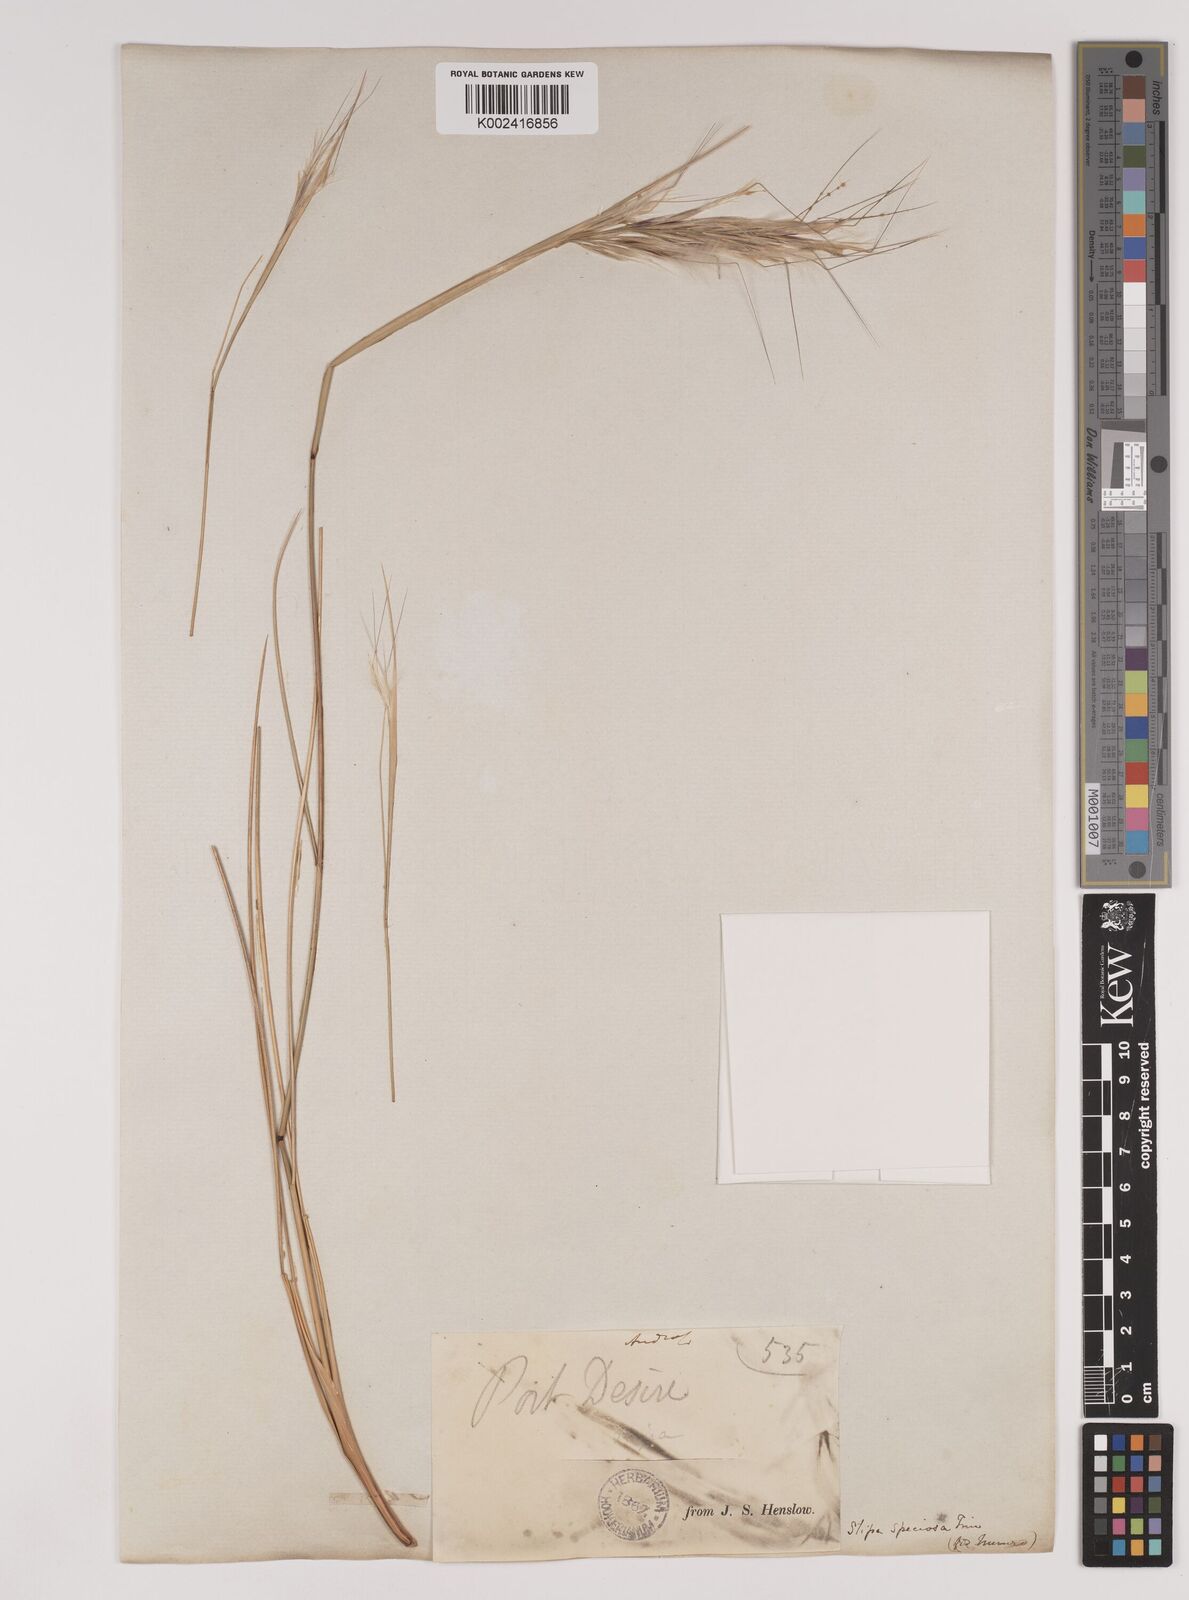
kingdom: Plantae
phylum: Tracheophyta
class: Liliopsida
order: Poales
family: Poaceae
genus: Pappostipa
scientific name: Pappostipa speciosa
